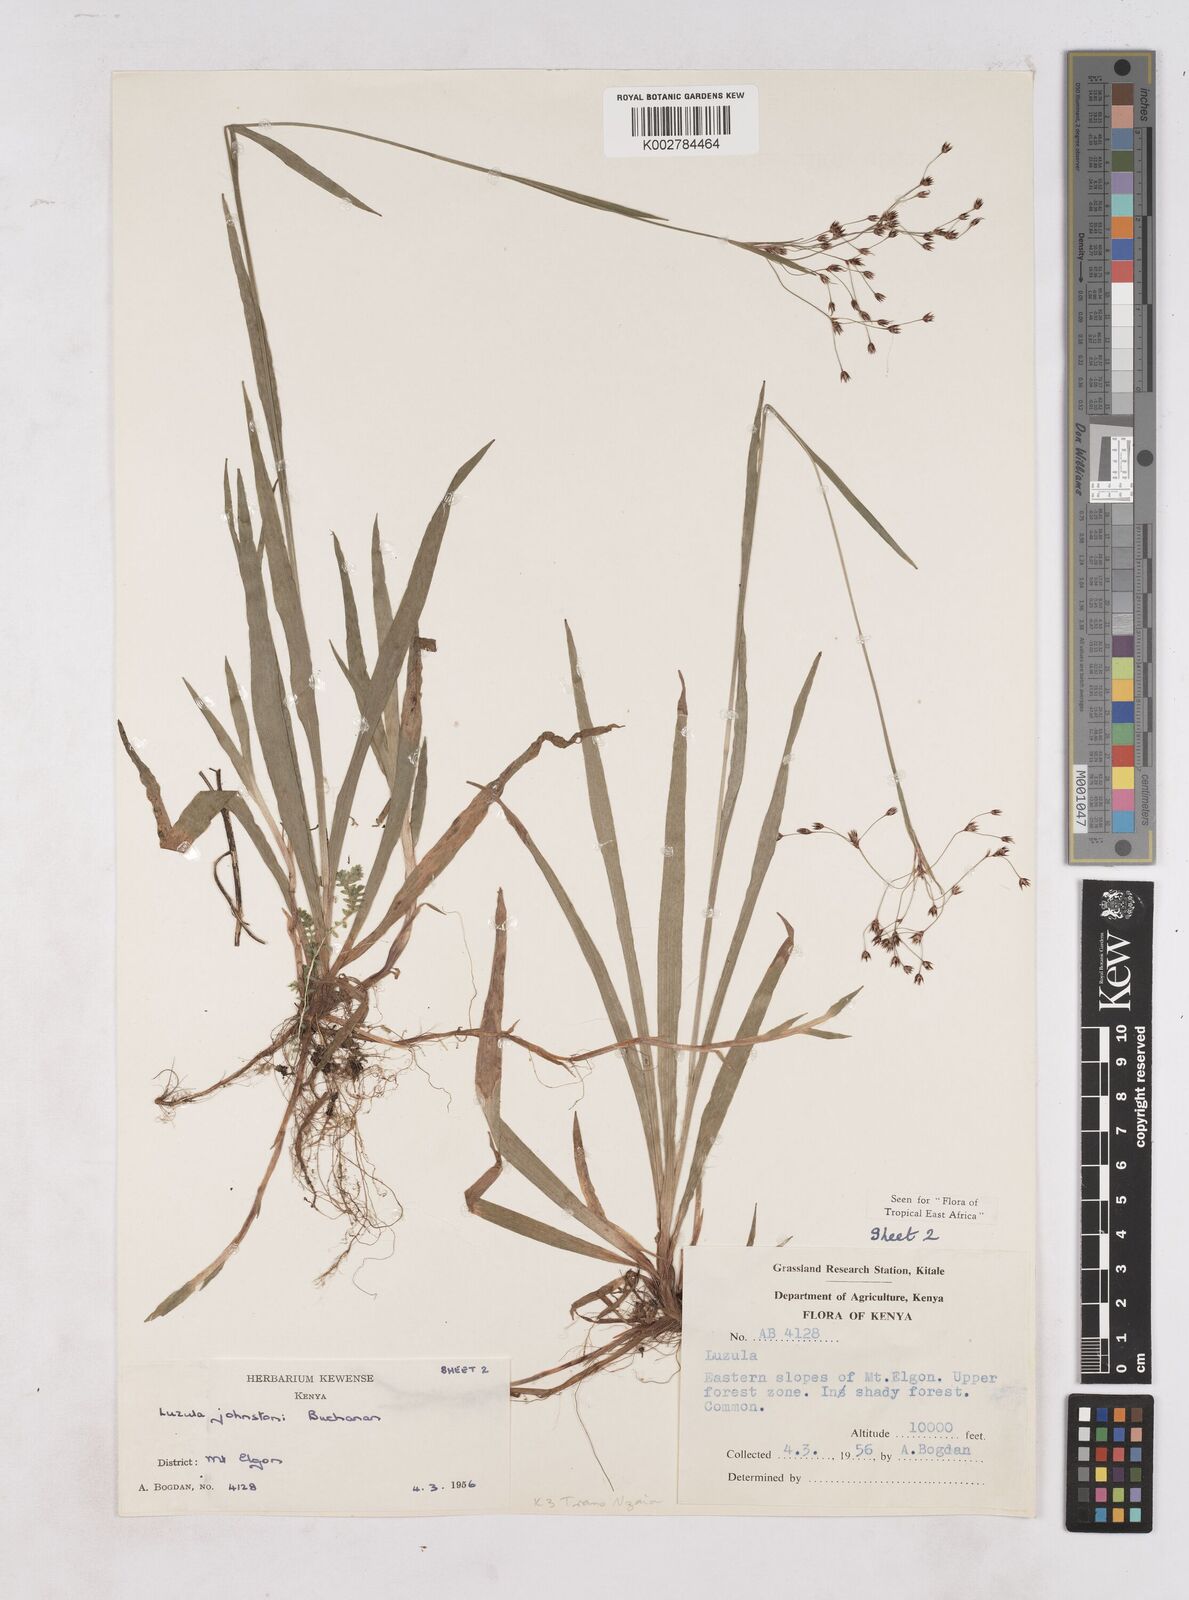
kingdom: Plantae
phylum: Tracheophyta
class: Liliopsida
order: Poales
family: Juncaceae
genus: Luzula
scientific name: Luzula johnstonii
